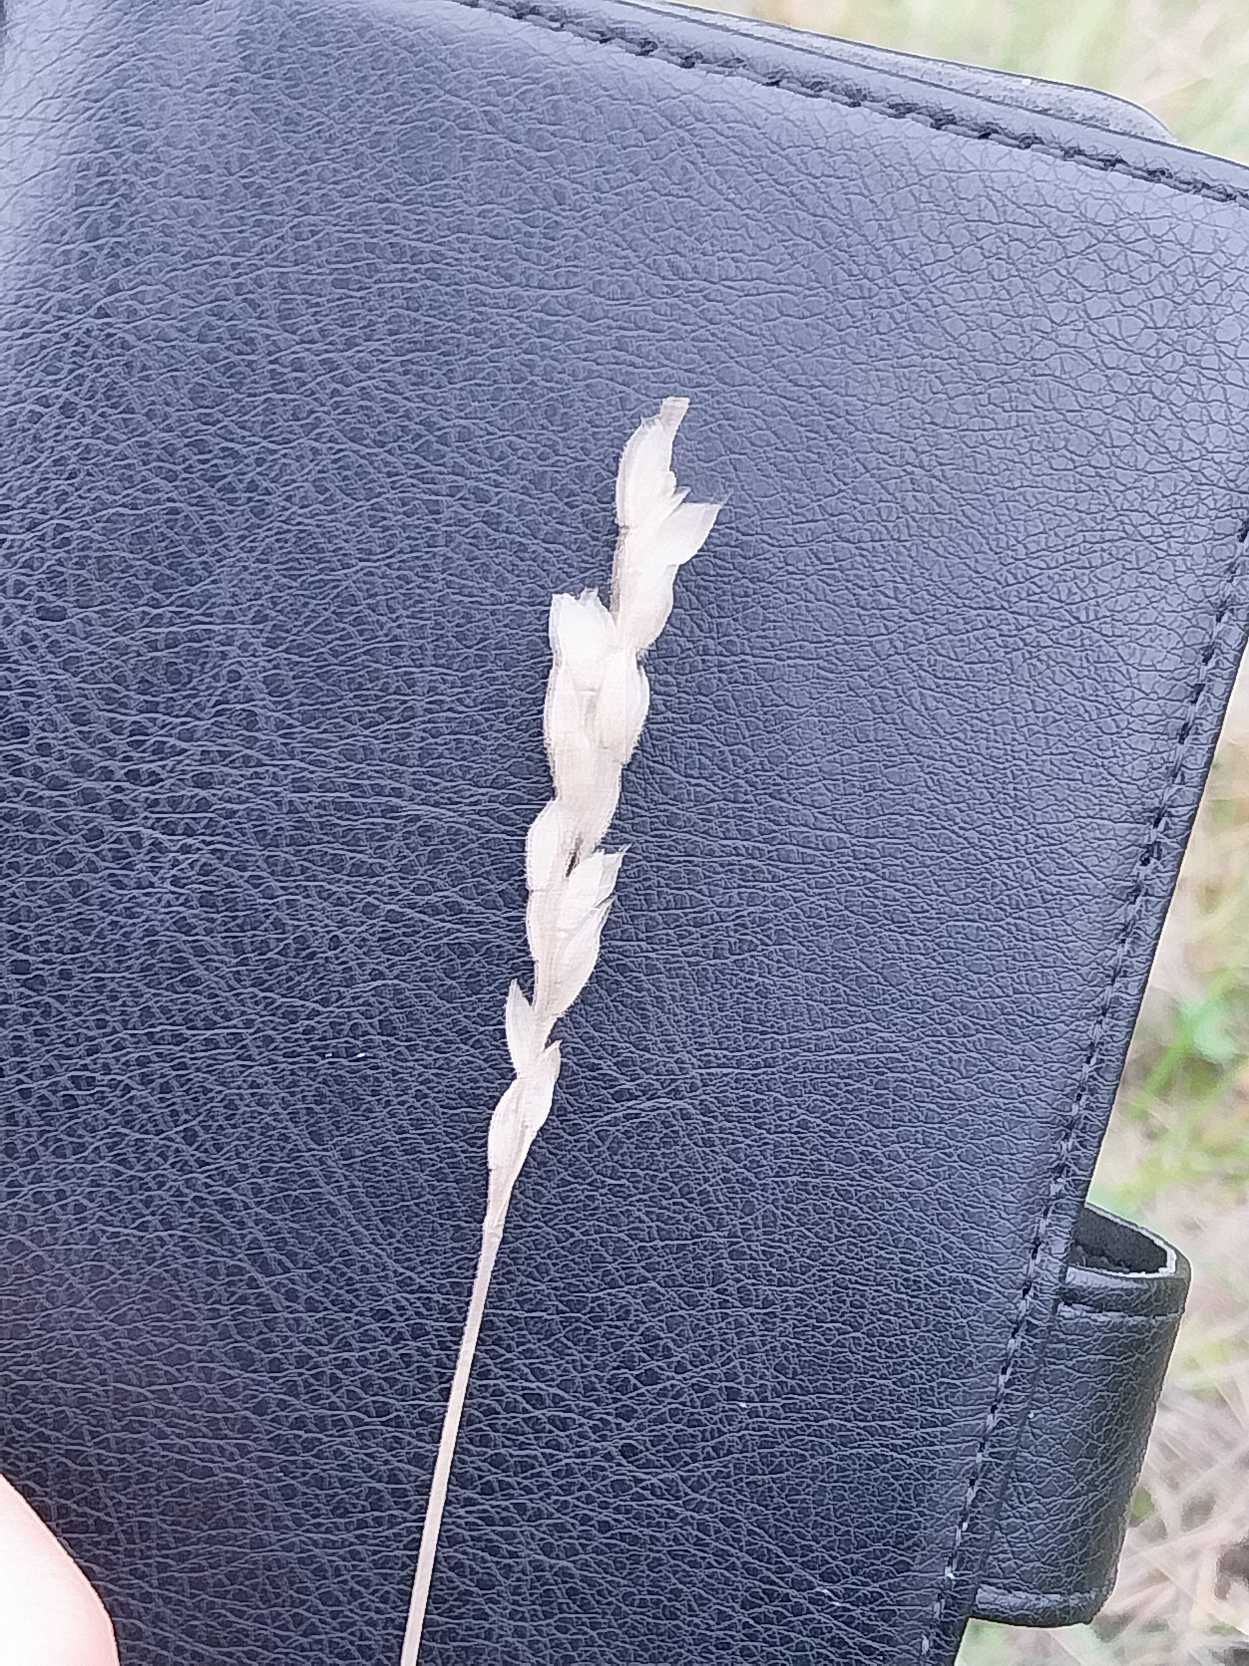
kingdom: Plantae
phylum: Tracheophyta
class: Liliopsida
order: Poales
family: Poaceae
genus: Bromus
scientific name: Bromus hordeaceus
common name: Blød hejre
